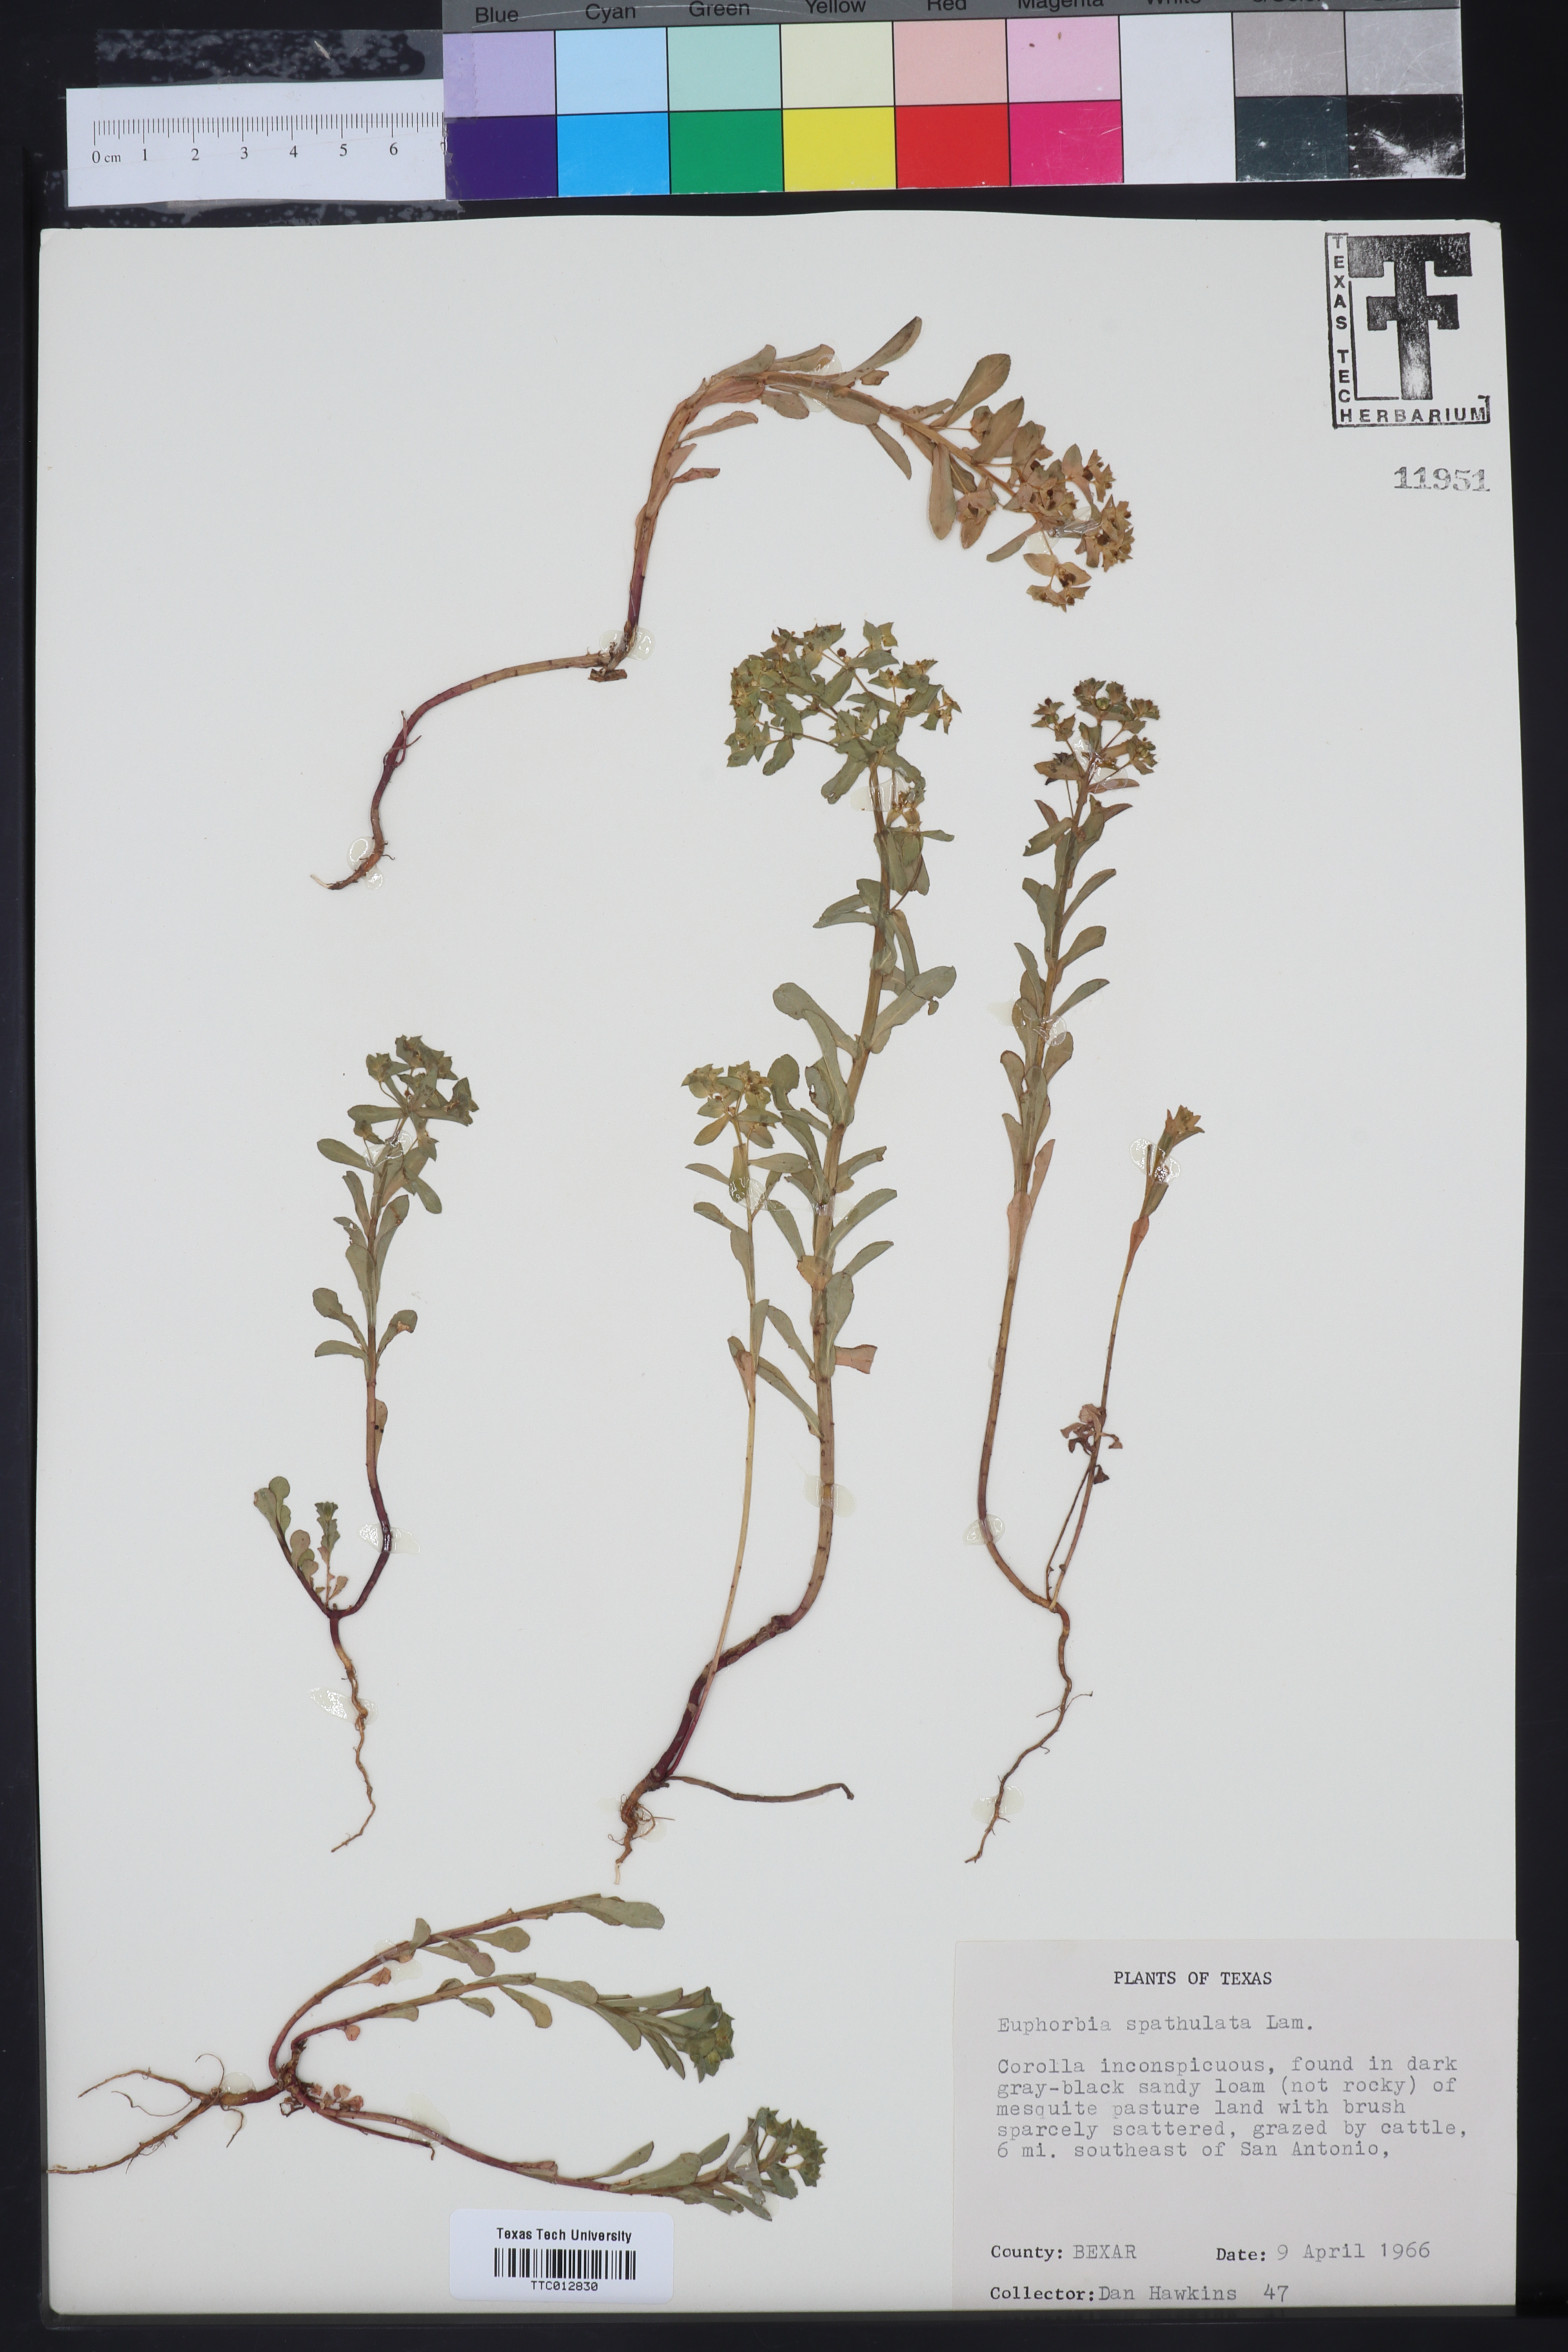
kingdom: Plantae
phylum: Tracheophyta
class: Magnoliopsida
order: Malpighiales
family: Euphorbiaceae
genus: Euphorbia
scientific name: Euphorbia spathulata
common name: Blunt spurge
